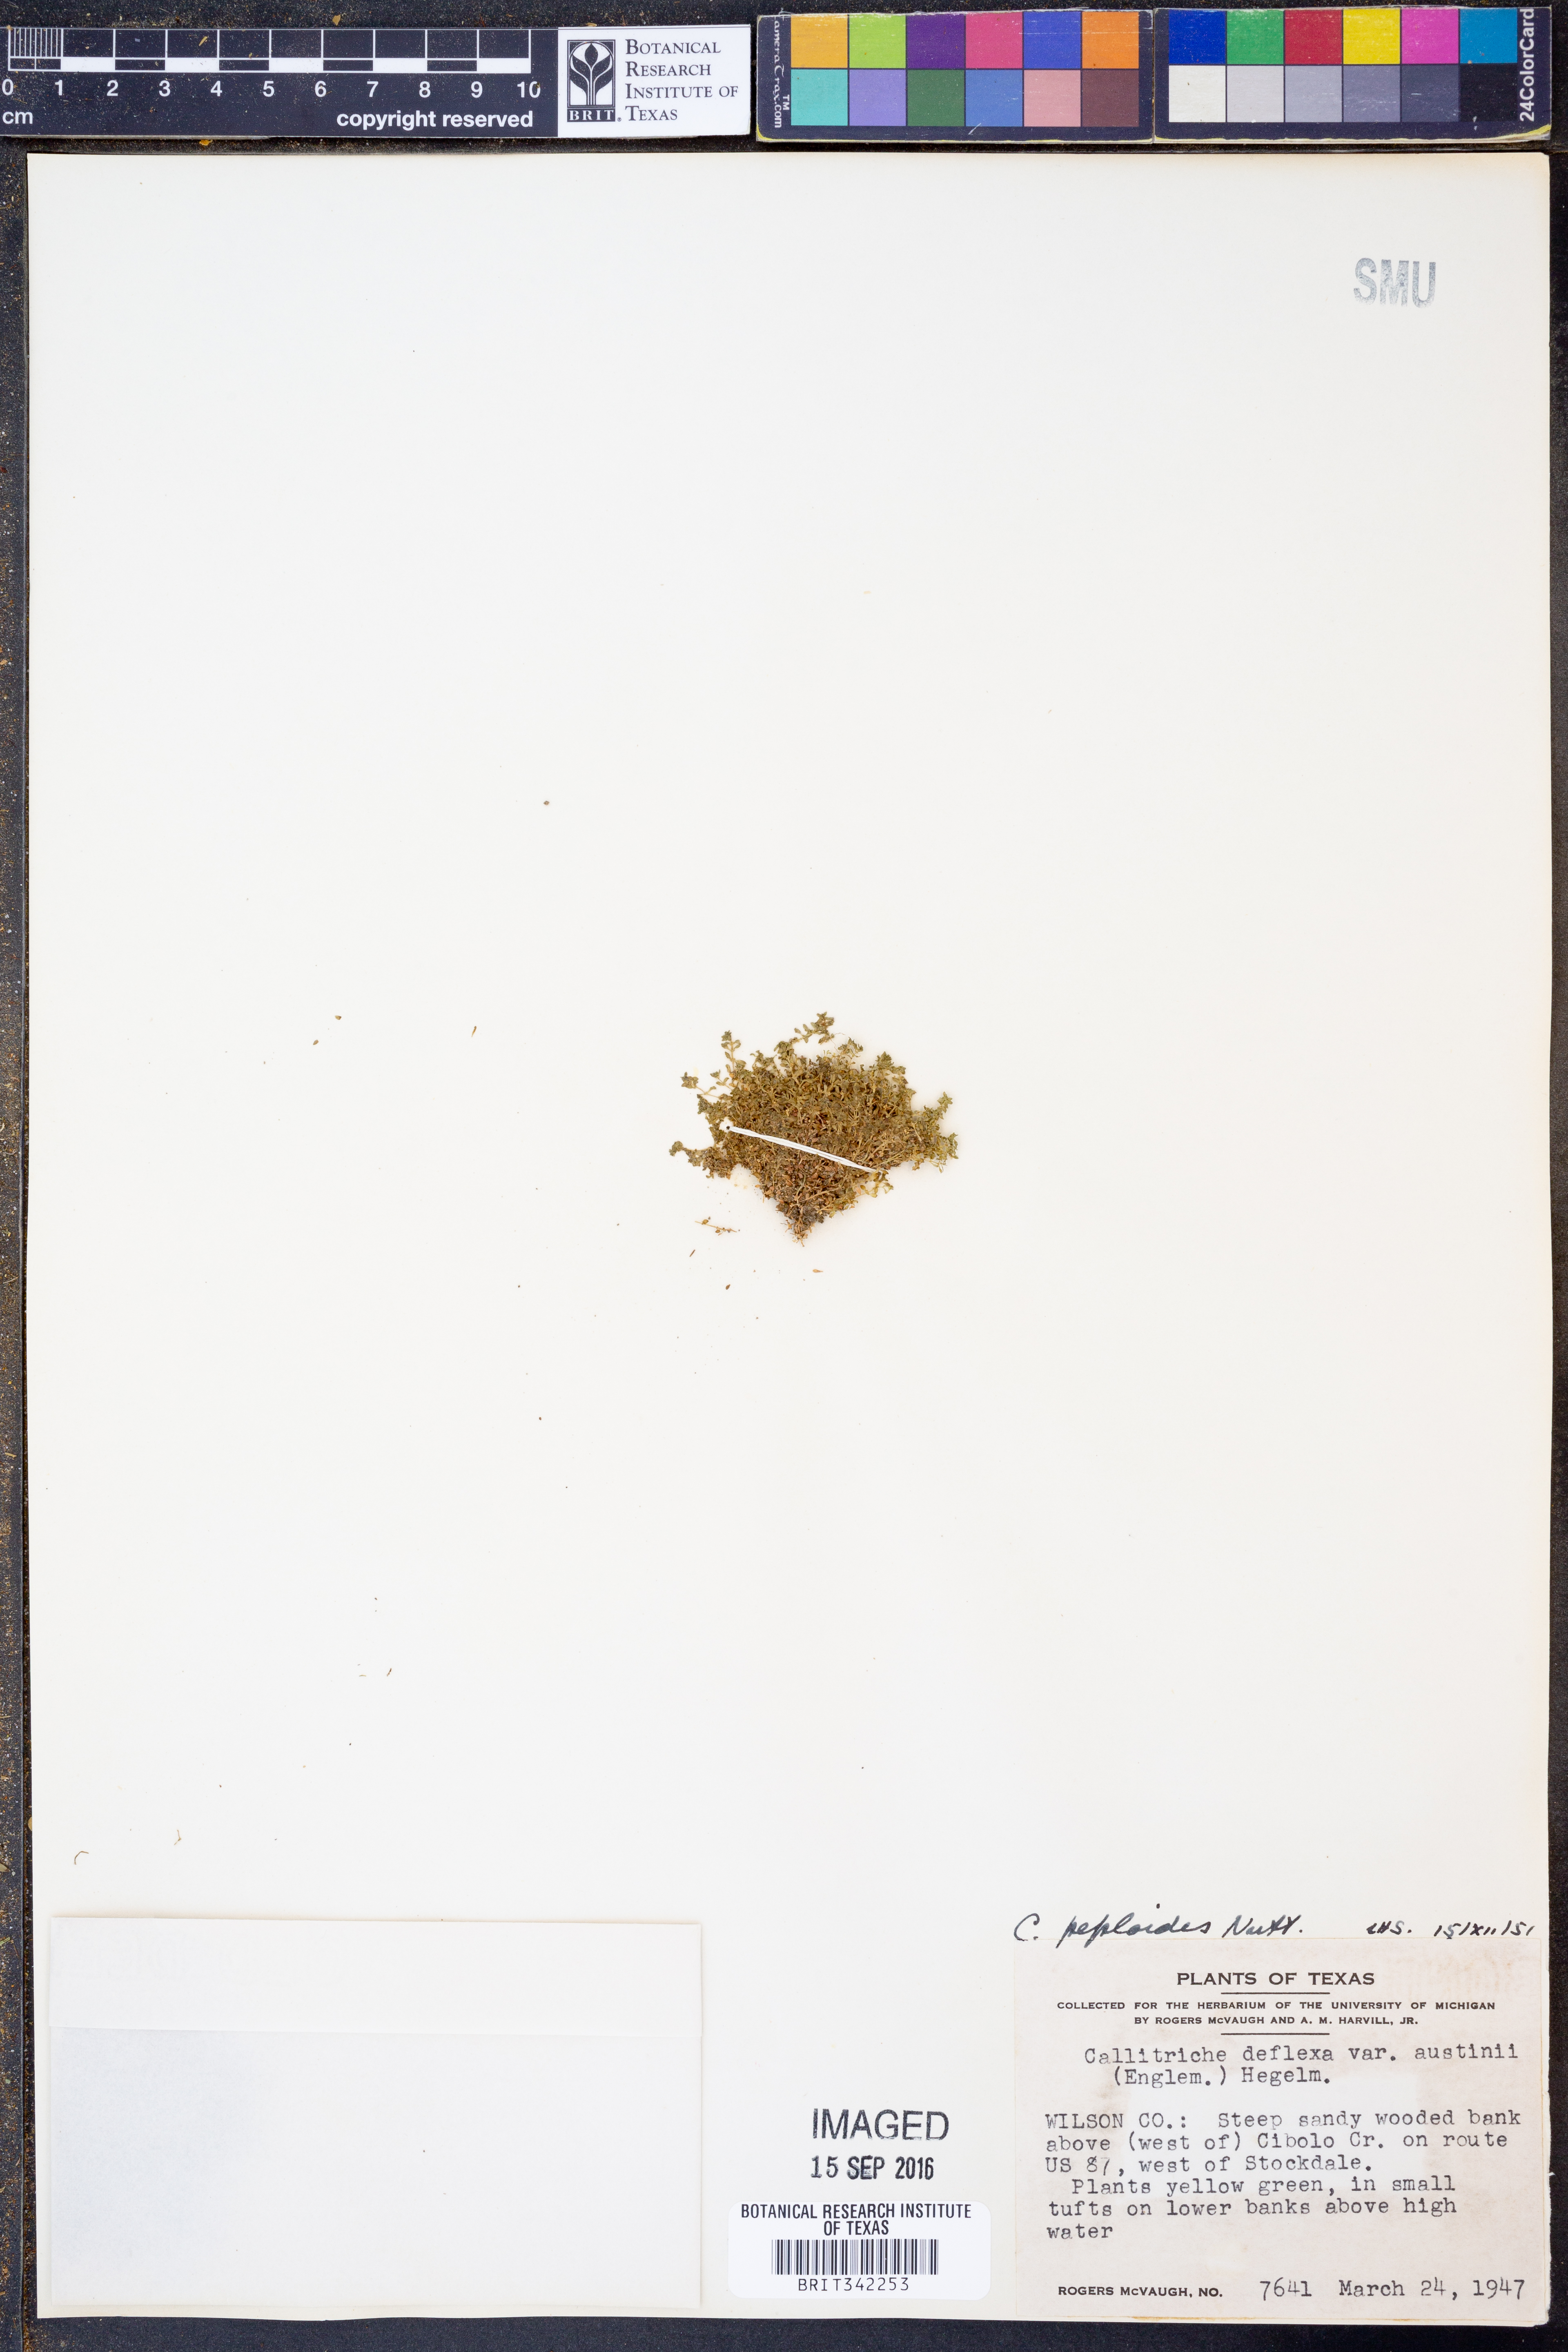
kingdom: Plantae
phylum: Tracheophyta
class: Magnoliopsida
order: Lamiales
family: Plantaginaceae
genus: Callitriche
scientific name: Callitriche peploides
